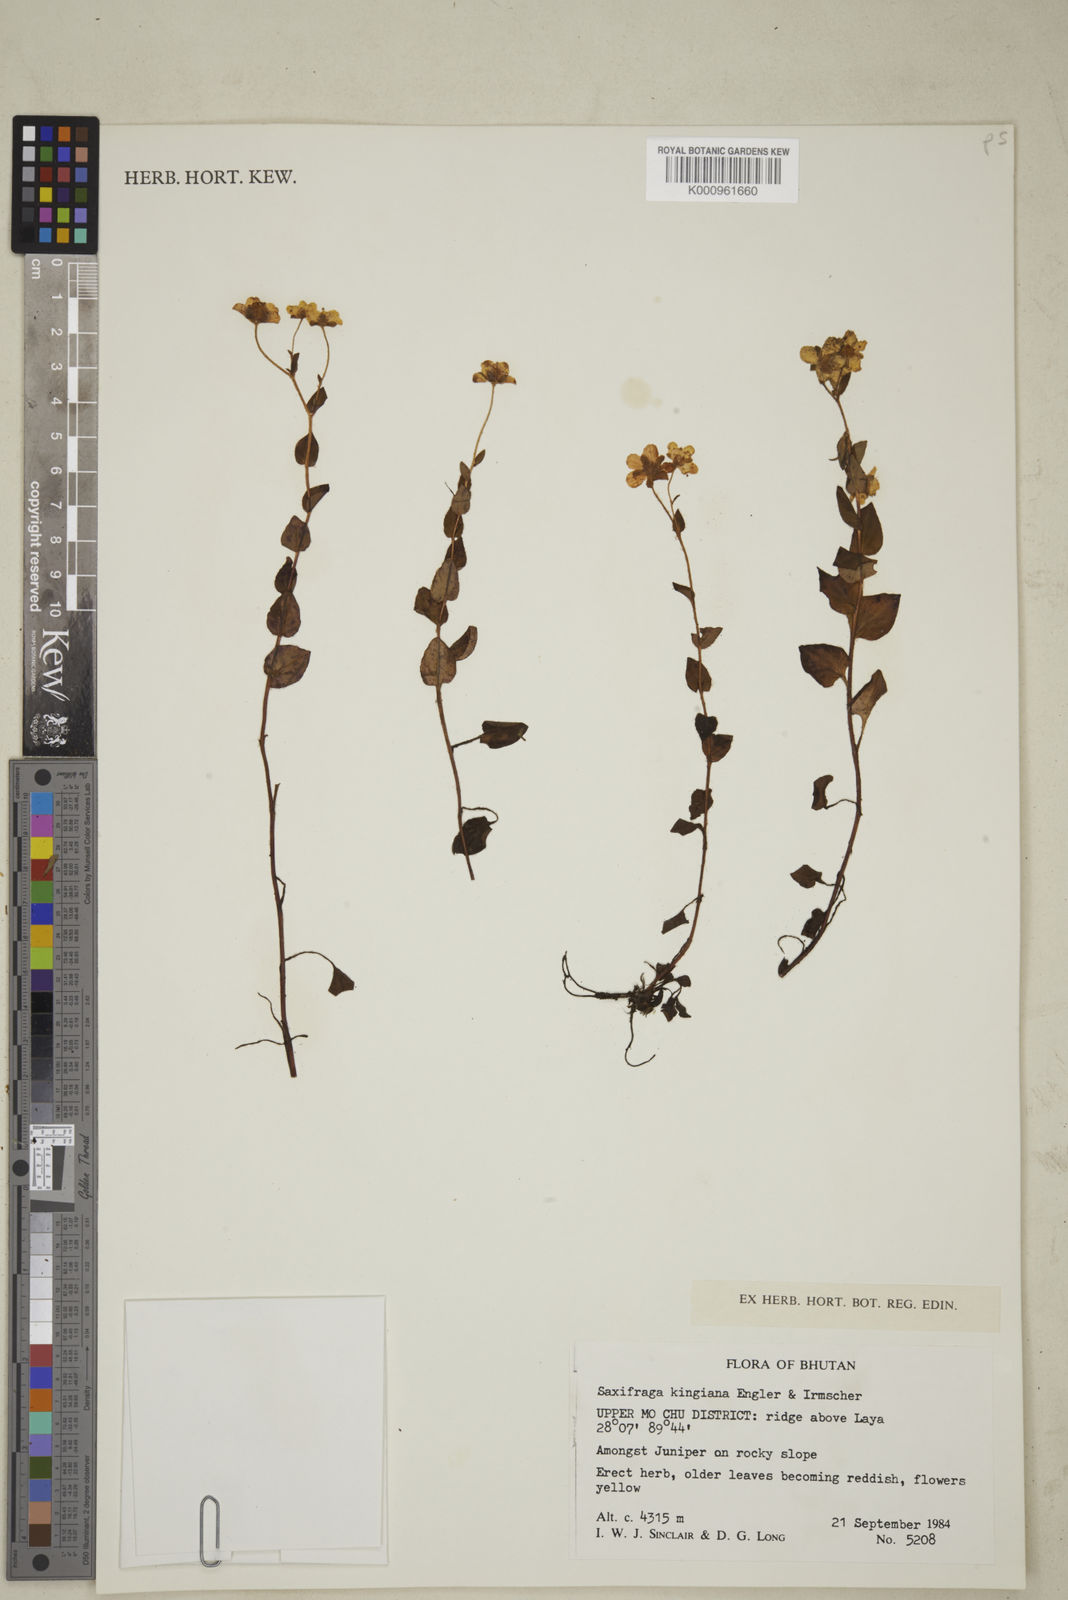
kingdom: Plantae
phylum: Tracheophyta
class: Magnoliopsida
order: Saxifragales
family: Saxifragaceae
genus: Saxifraga
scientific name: Saxifraga kingiana
